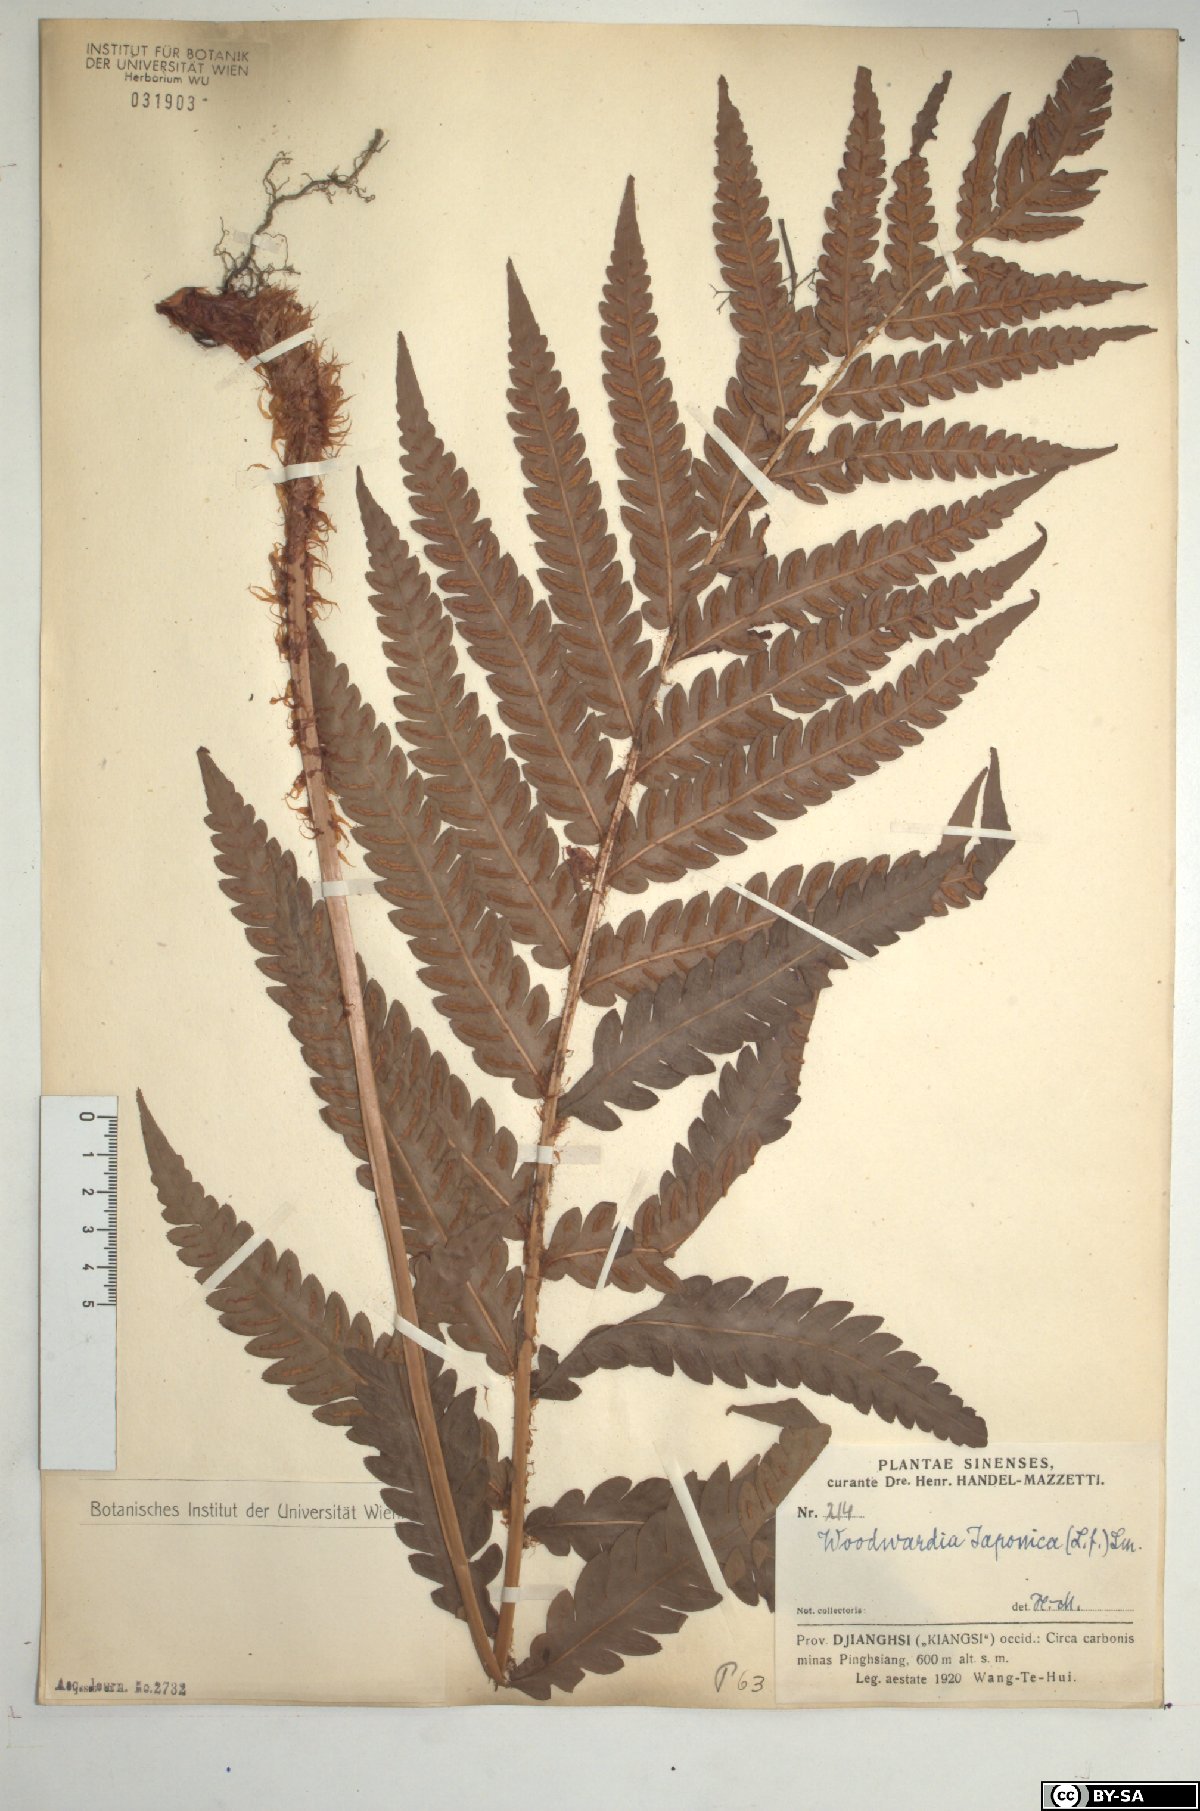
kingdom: Plantae
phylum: Tracheophyta
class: Polypodiopsida
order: Polypodiales
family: Blechnaceae
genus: Woodwardia
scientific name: Woodwardia japonica
